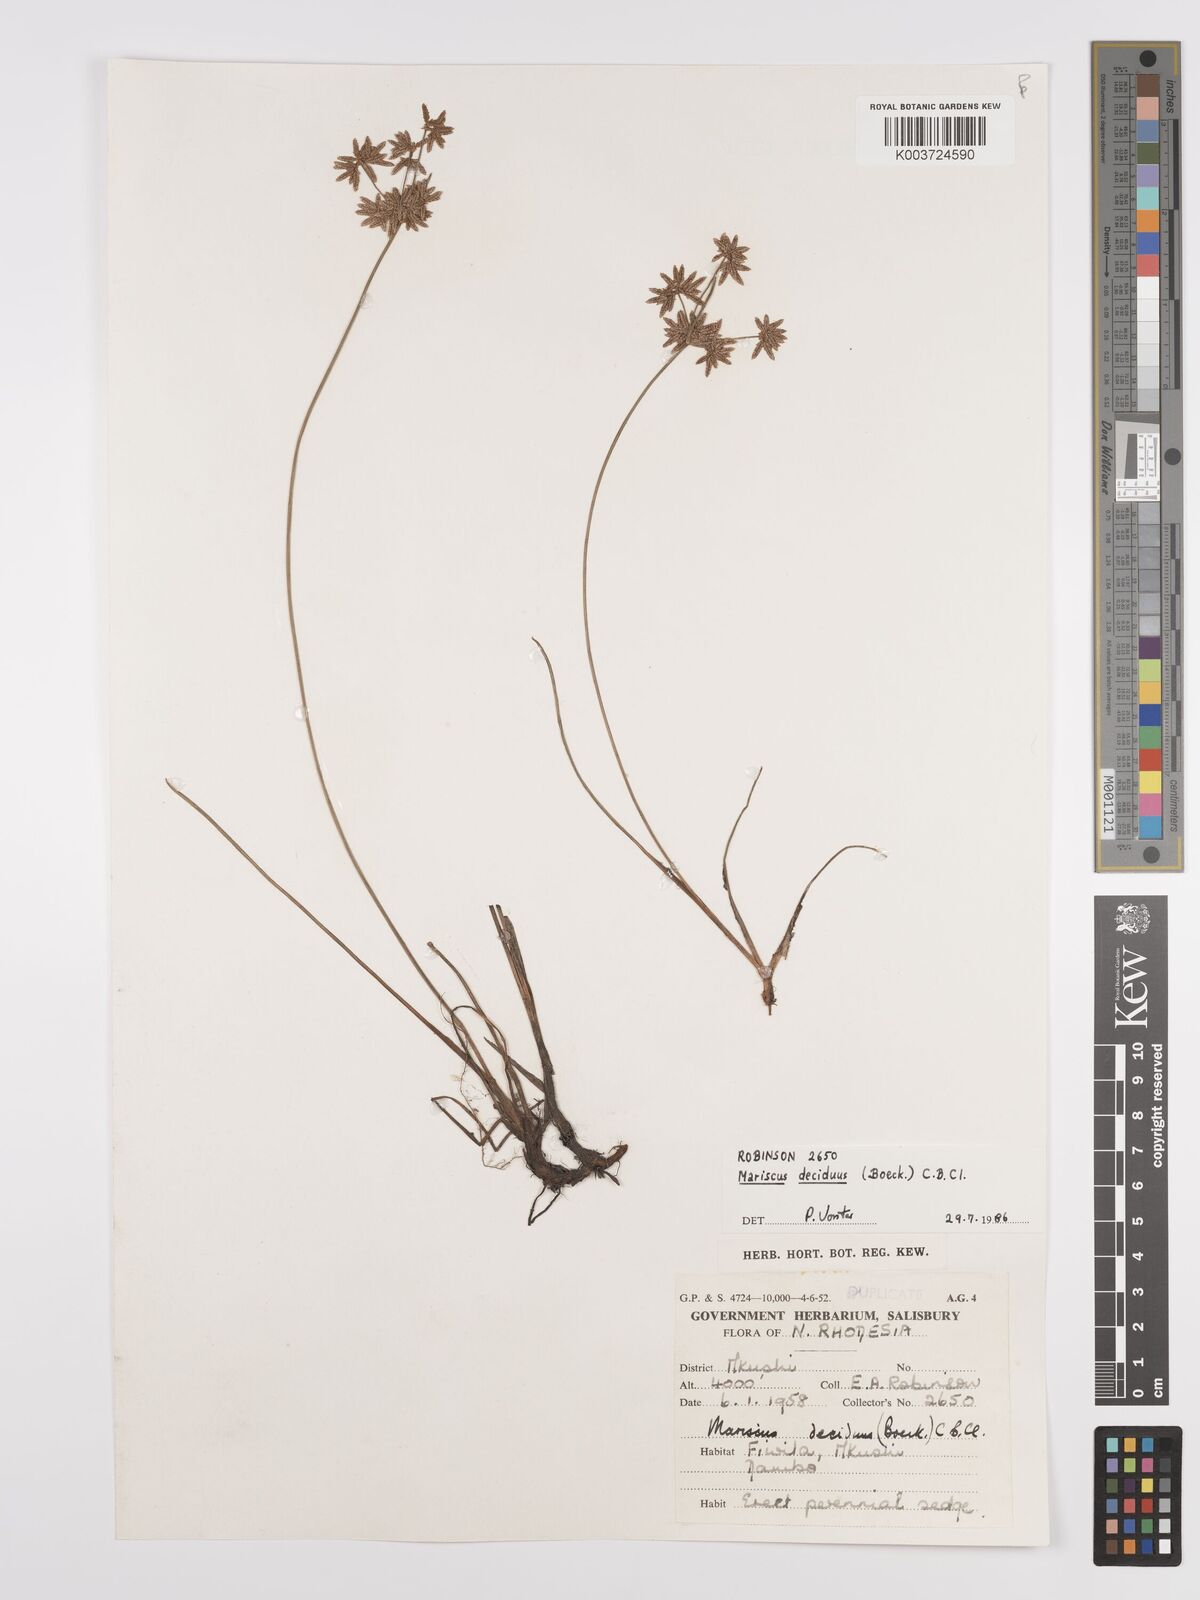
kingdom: Plantae
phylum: Tracheophyta
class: Liliopsida
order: Poales
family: Cyperaceae
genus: Cyperus
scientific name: Cyperus deciduus
